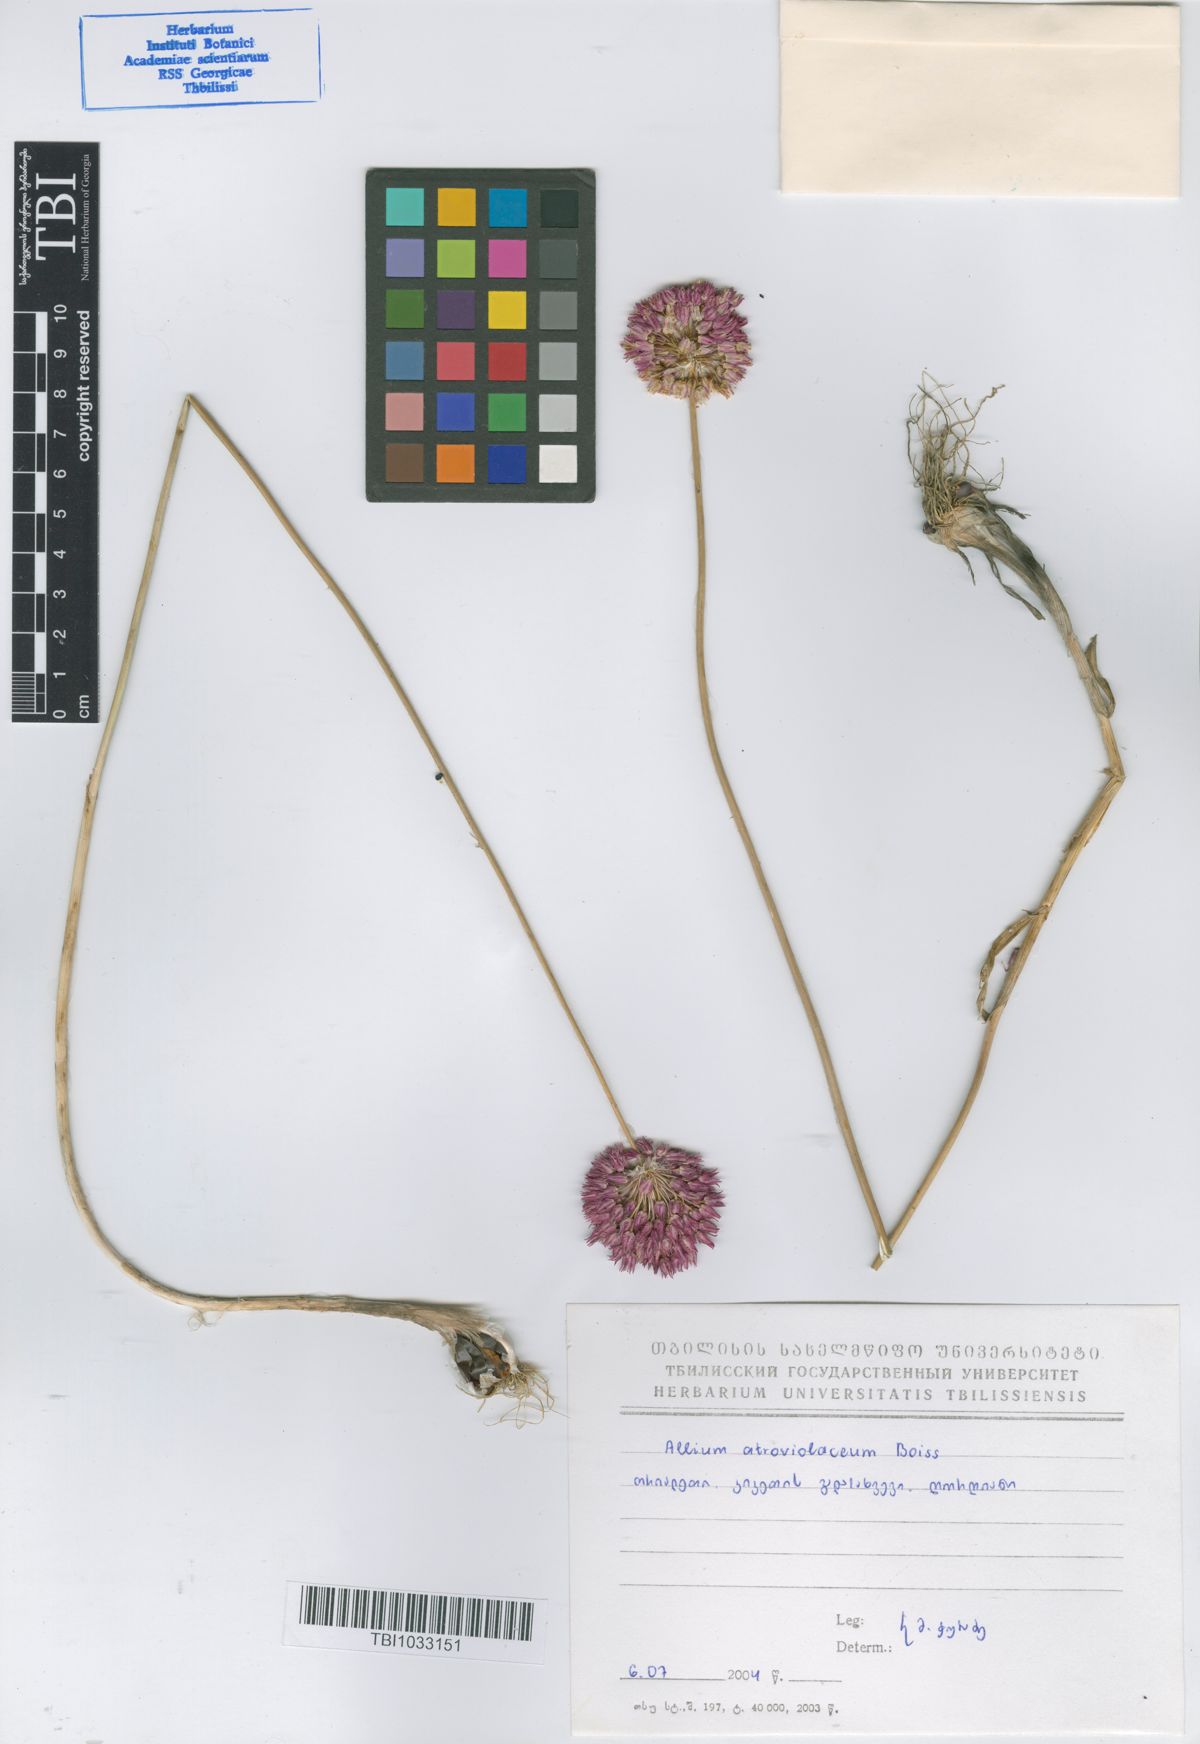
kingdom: Plantae
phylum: Tracheophyta
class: Liliopsida
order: Asparagales
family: Amaryllidaceae
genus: Allium
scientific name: Allium atroviolaceum
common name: Broadleaf wild leek
